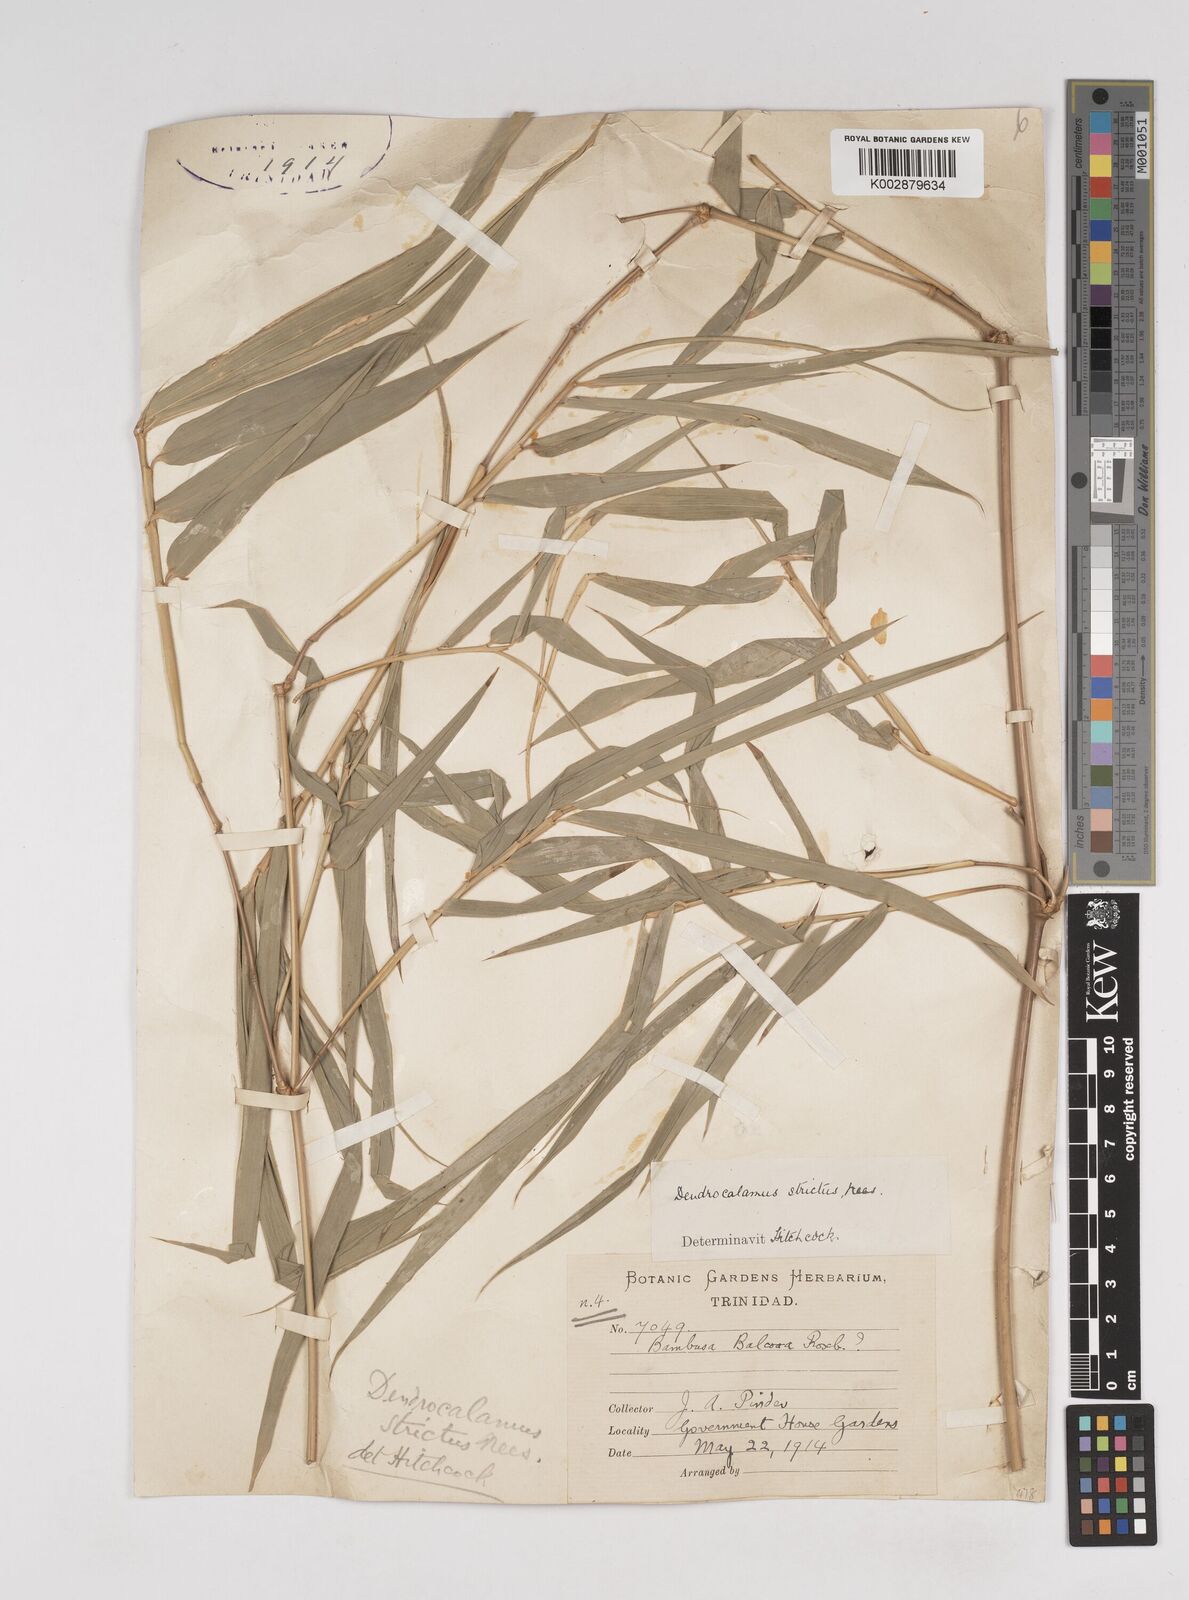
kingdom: Plantae
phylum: Tracheophyta
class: Liliopsida
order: Poales
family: Poaceae
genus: Dendrocalamus
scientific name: Dendrocalamus strictus
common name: Male bamboo
